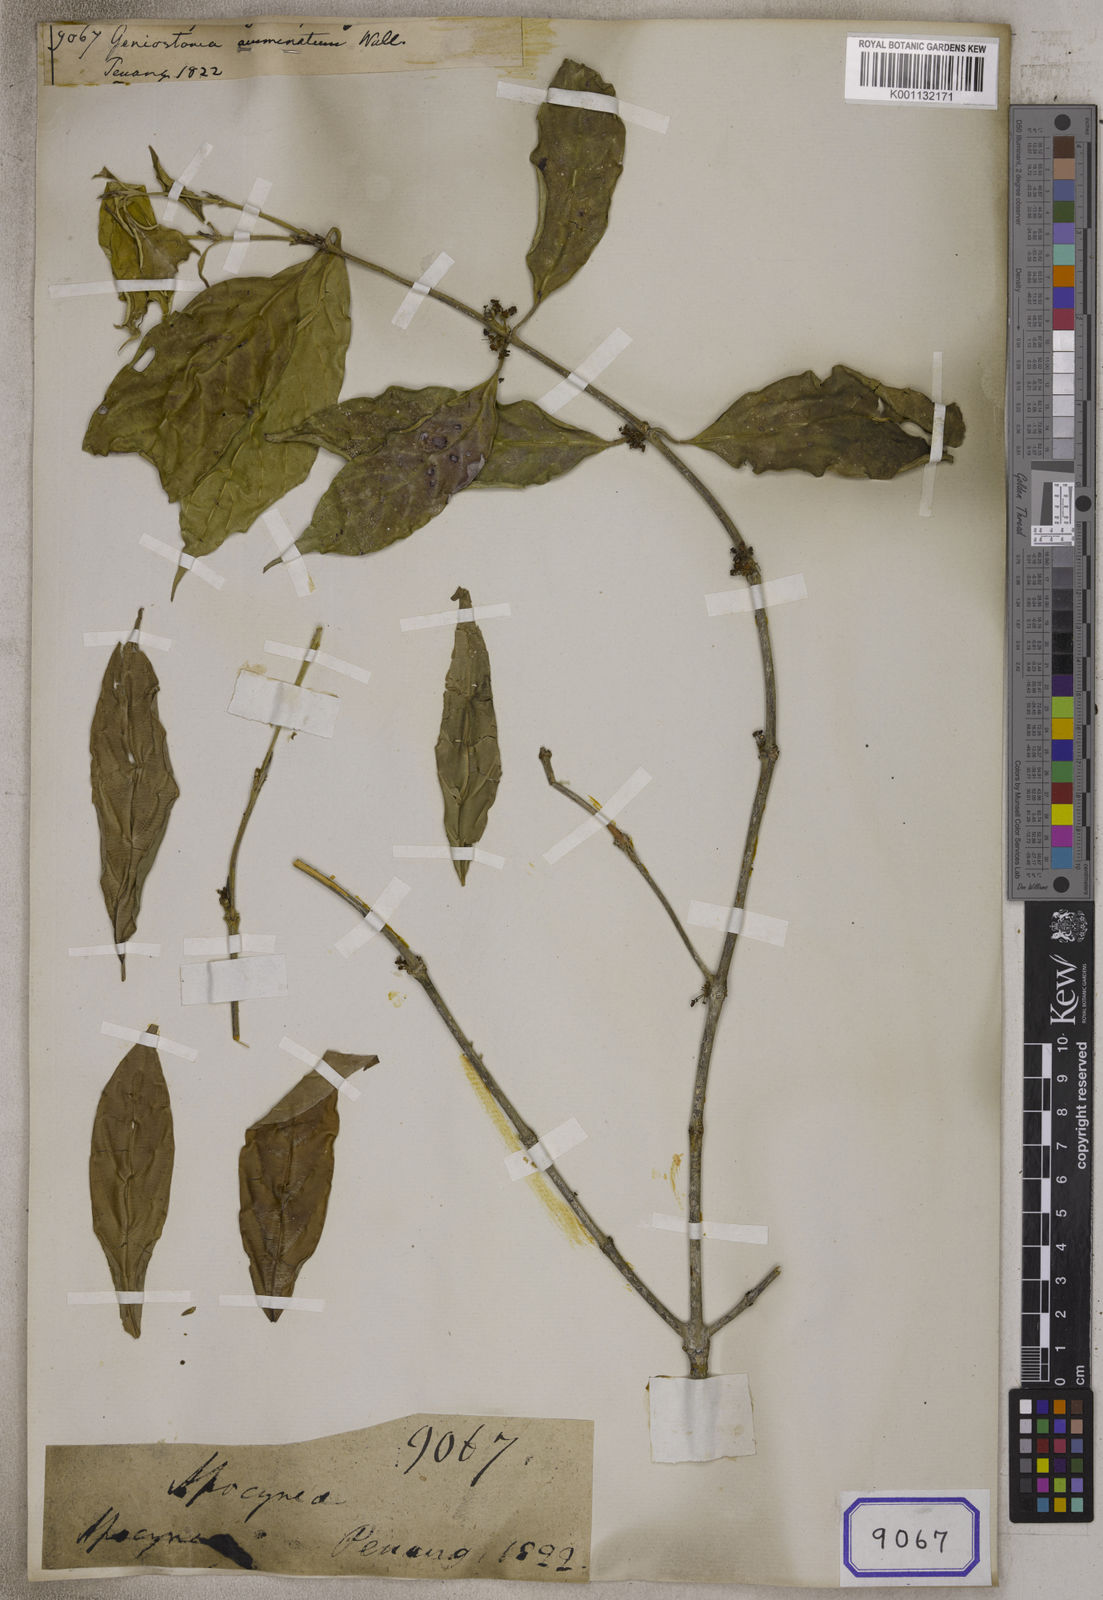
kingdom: Plantae
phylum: Tracheophyta
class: Magnoliopsida
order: Gentianales
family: Rubiaceae
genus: Urophyllum
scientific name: Urophyllum streptopodium
